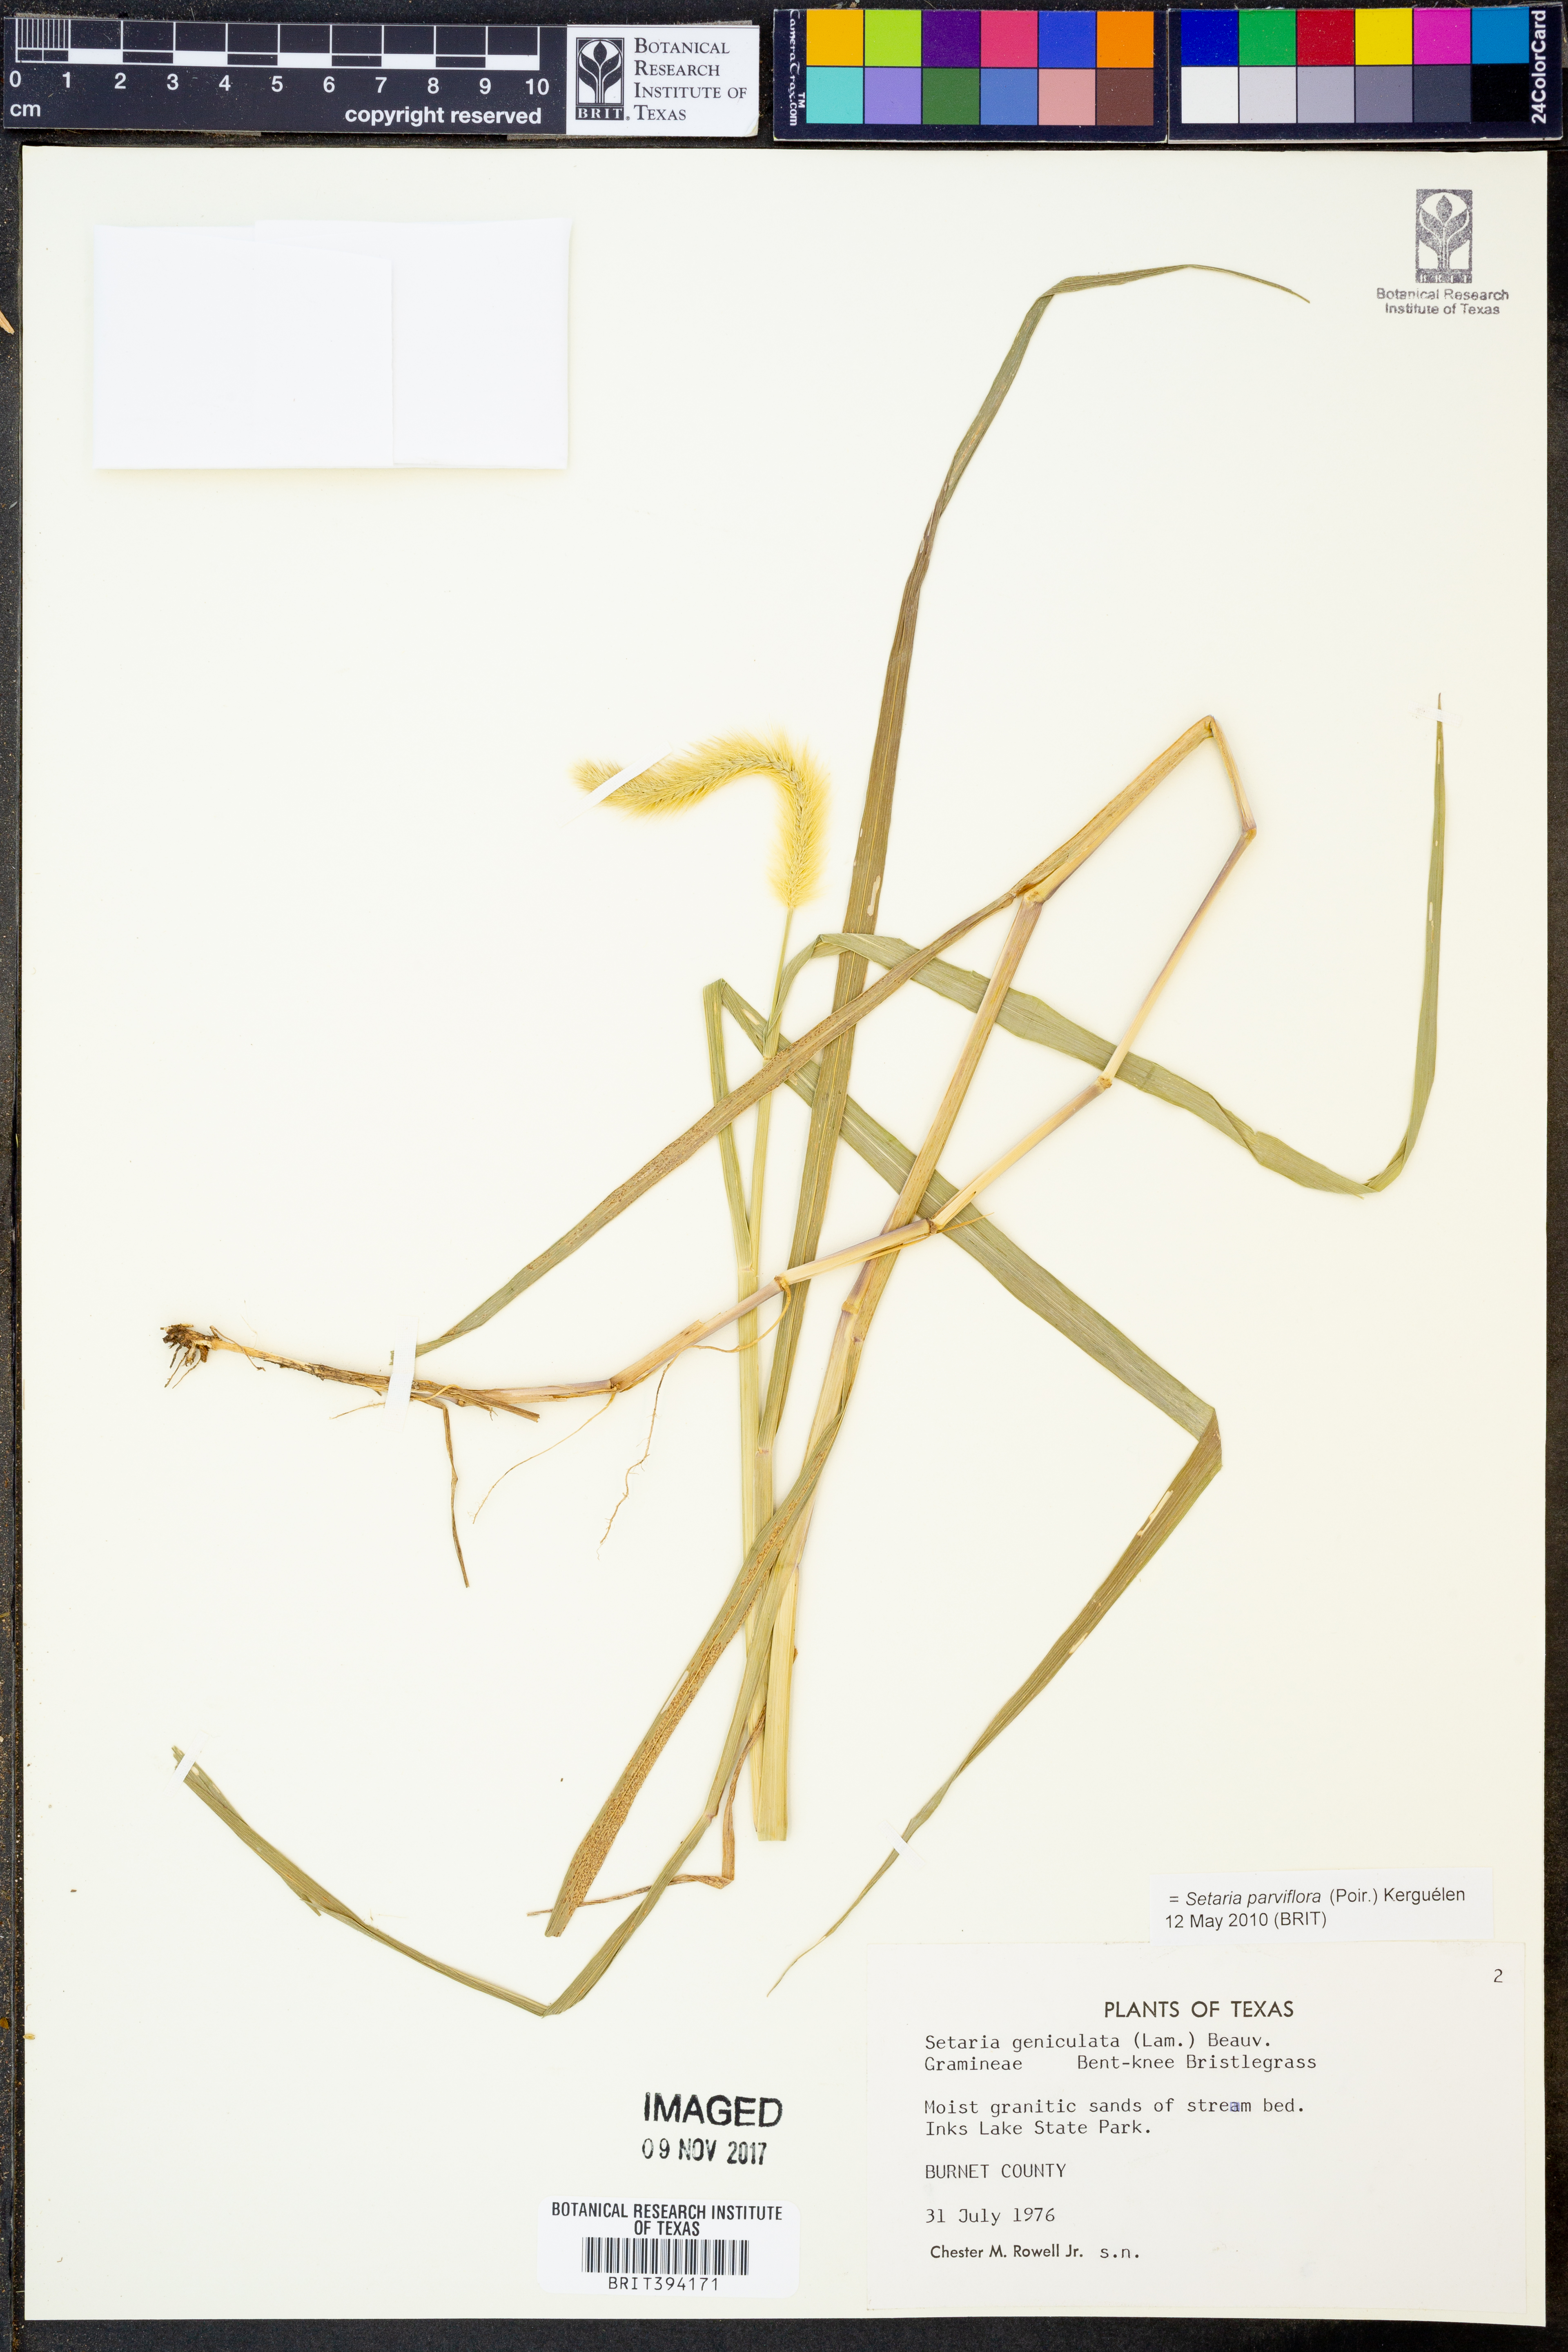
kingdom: Plantae
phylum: Tracheophyta
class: Liliopsida
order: Poales
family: Poaceae
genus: Setaria
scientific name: Setaria parviflora
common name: Knotroot bristle-grass
